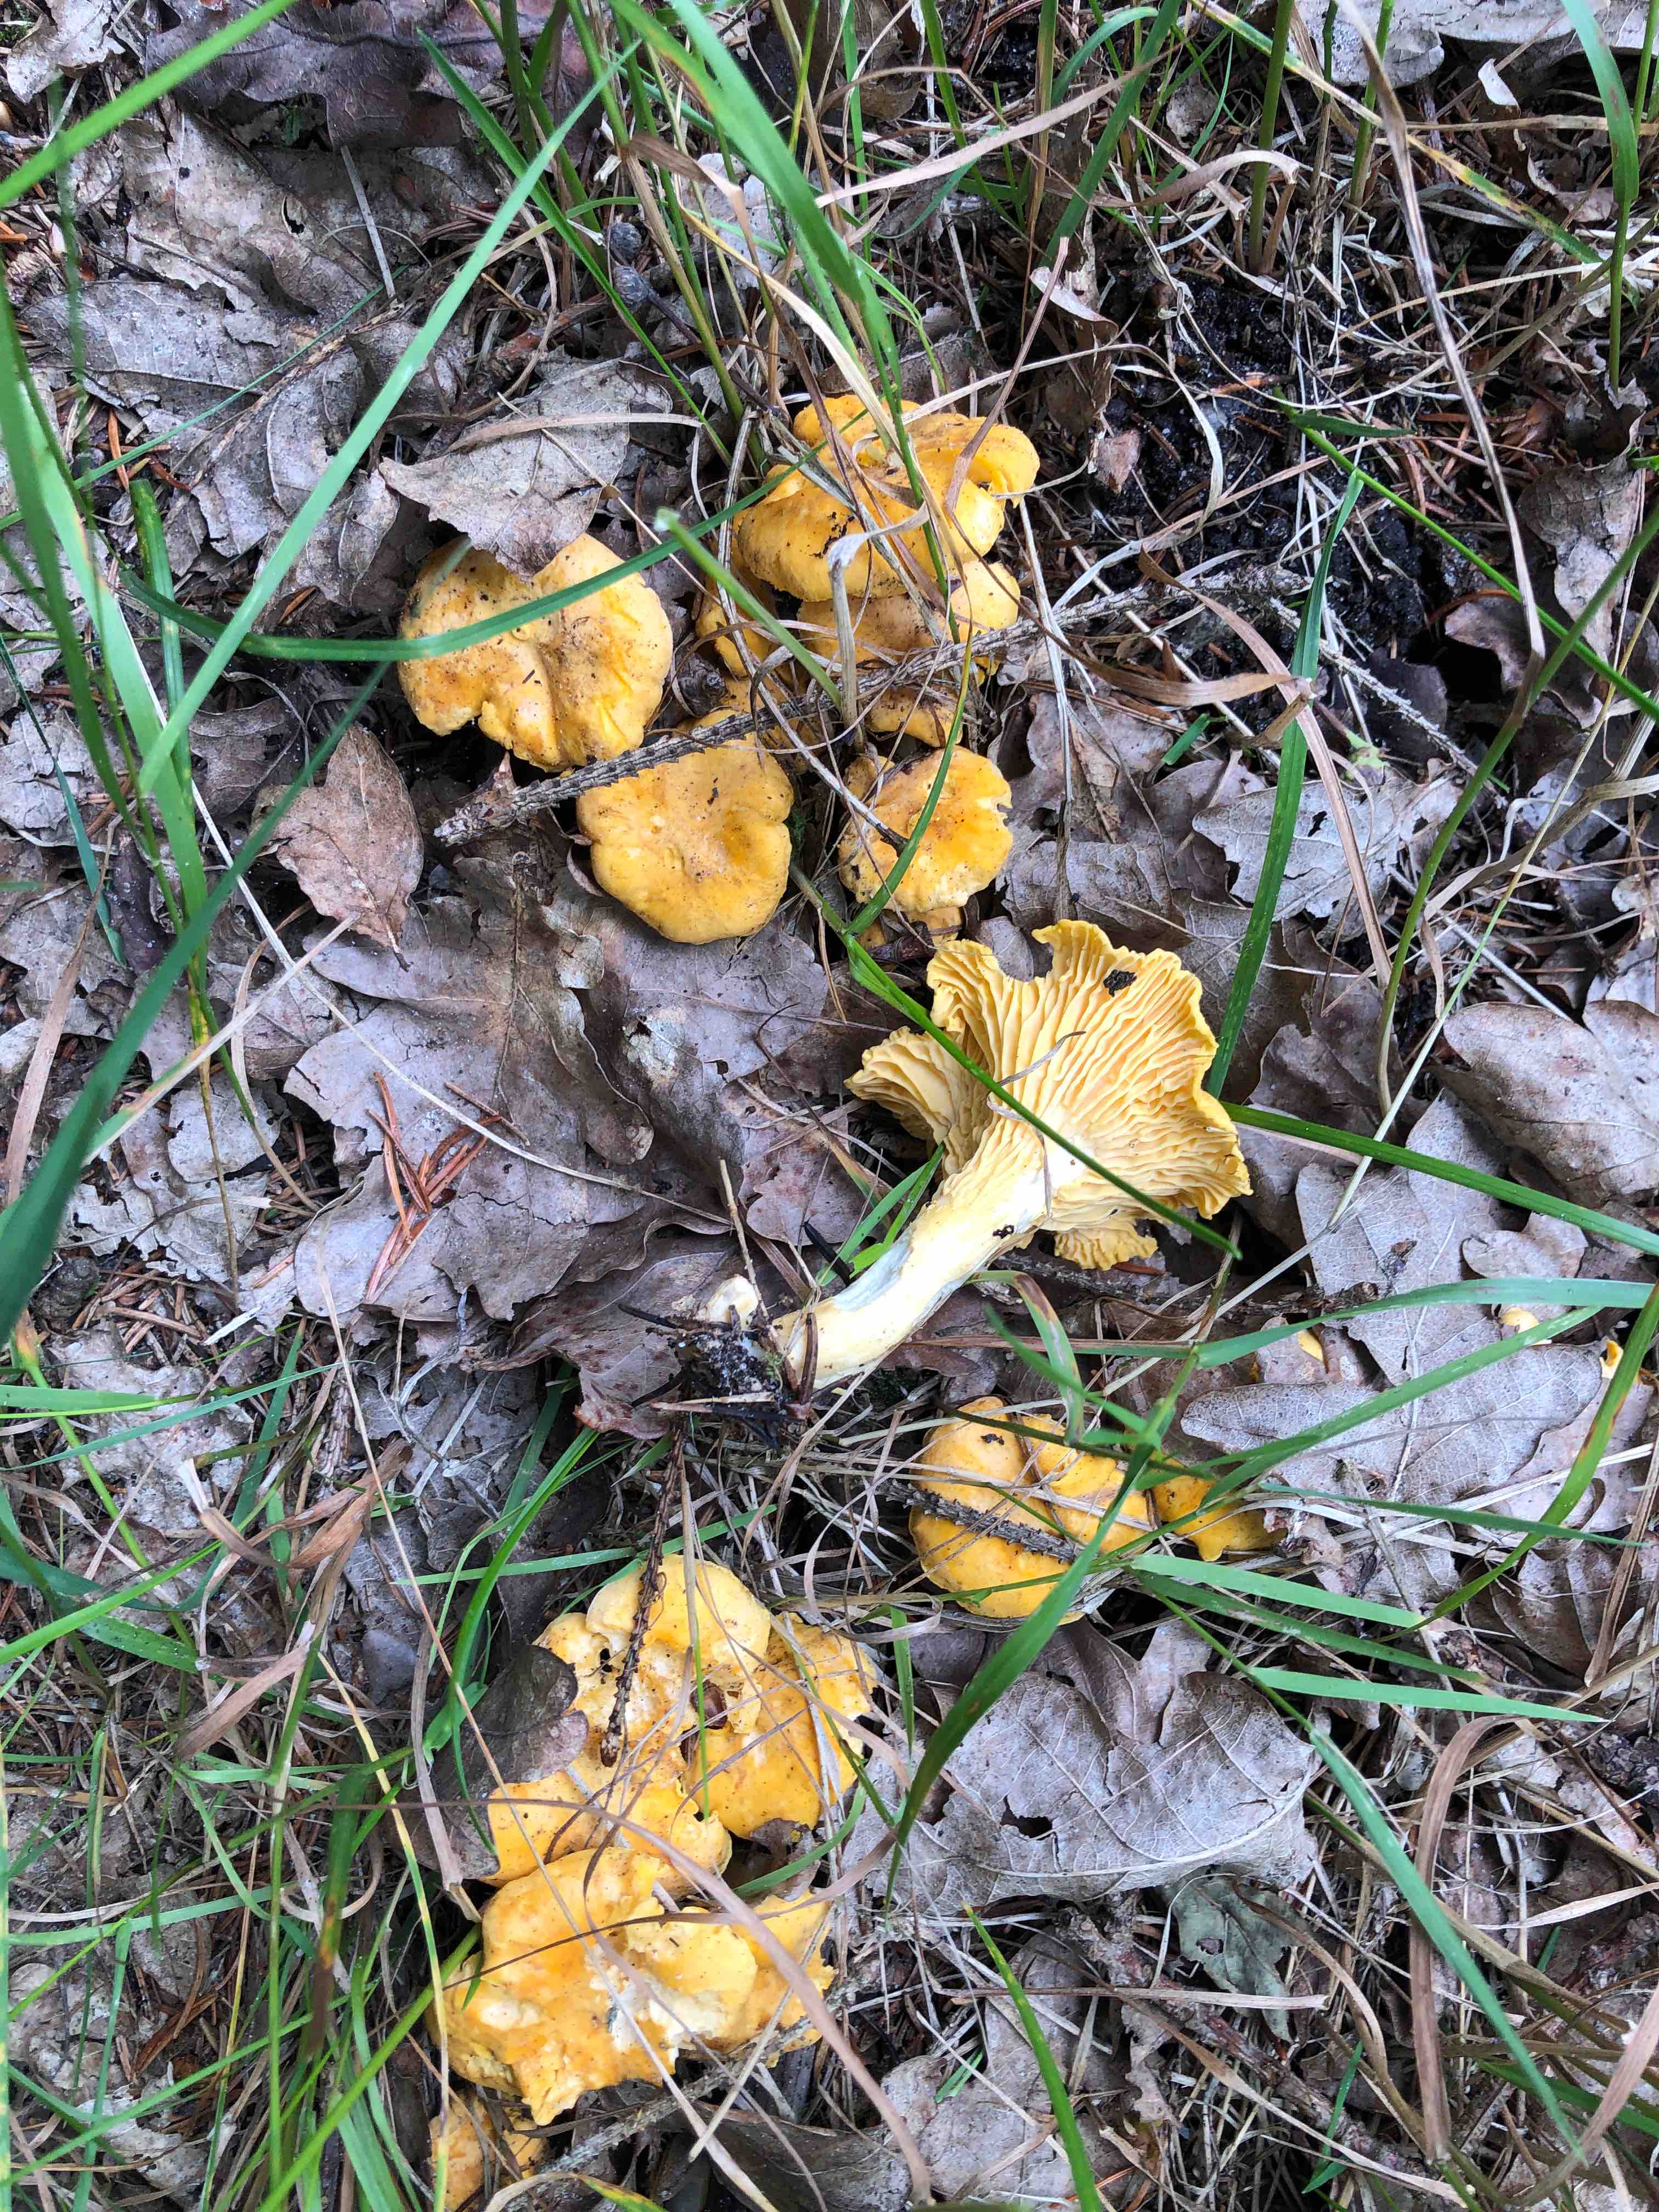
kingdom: Fungi
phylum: Basidiomycota
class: Agaricomycetes
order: Cantharellales
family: Hydnaceae
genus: Cantharellus
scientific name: Cantharellus cibarius
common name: almindelig kantarel
